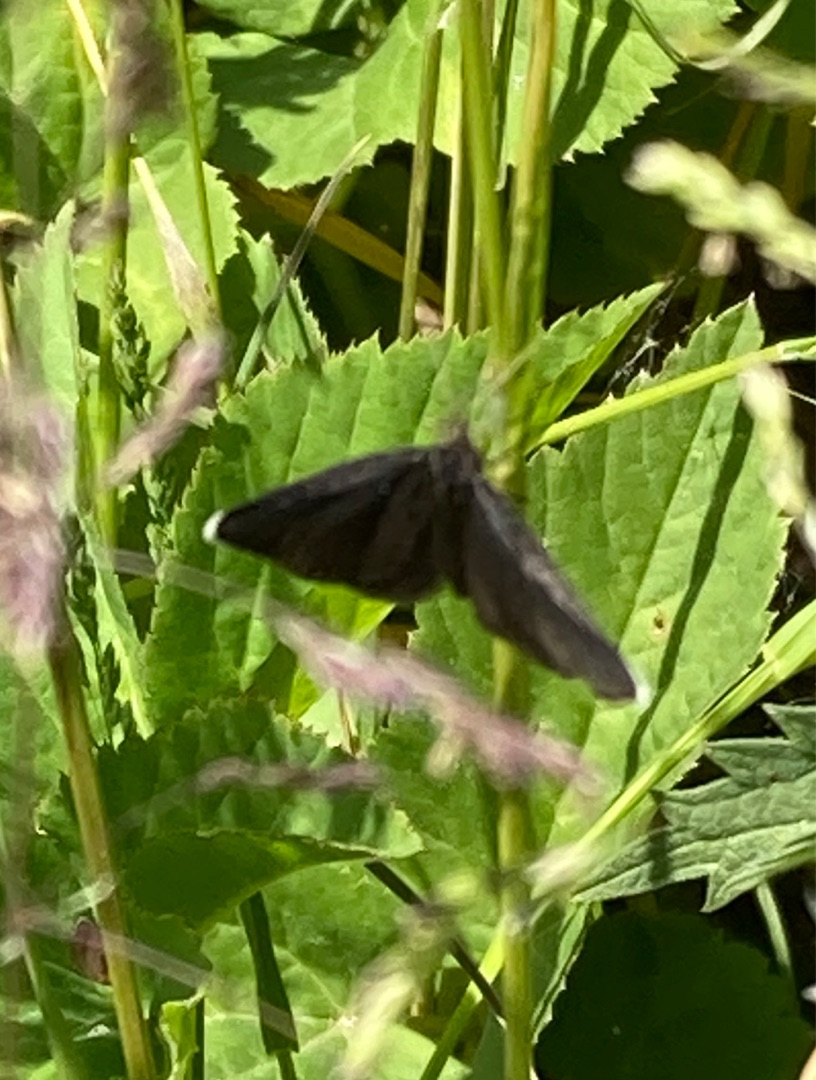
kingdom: Animalia
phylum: Arthropoda
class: Insecta
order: Lepidoptera
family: Geometridae
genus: Odezia
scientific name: Odezia atrata
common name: Sort måler
